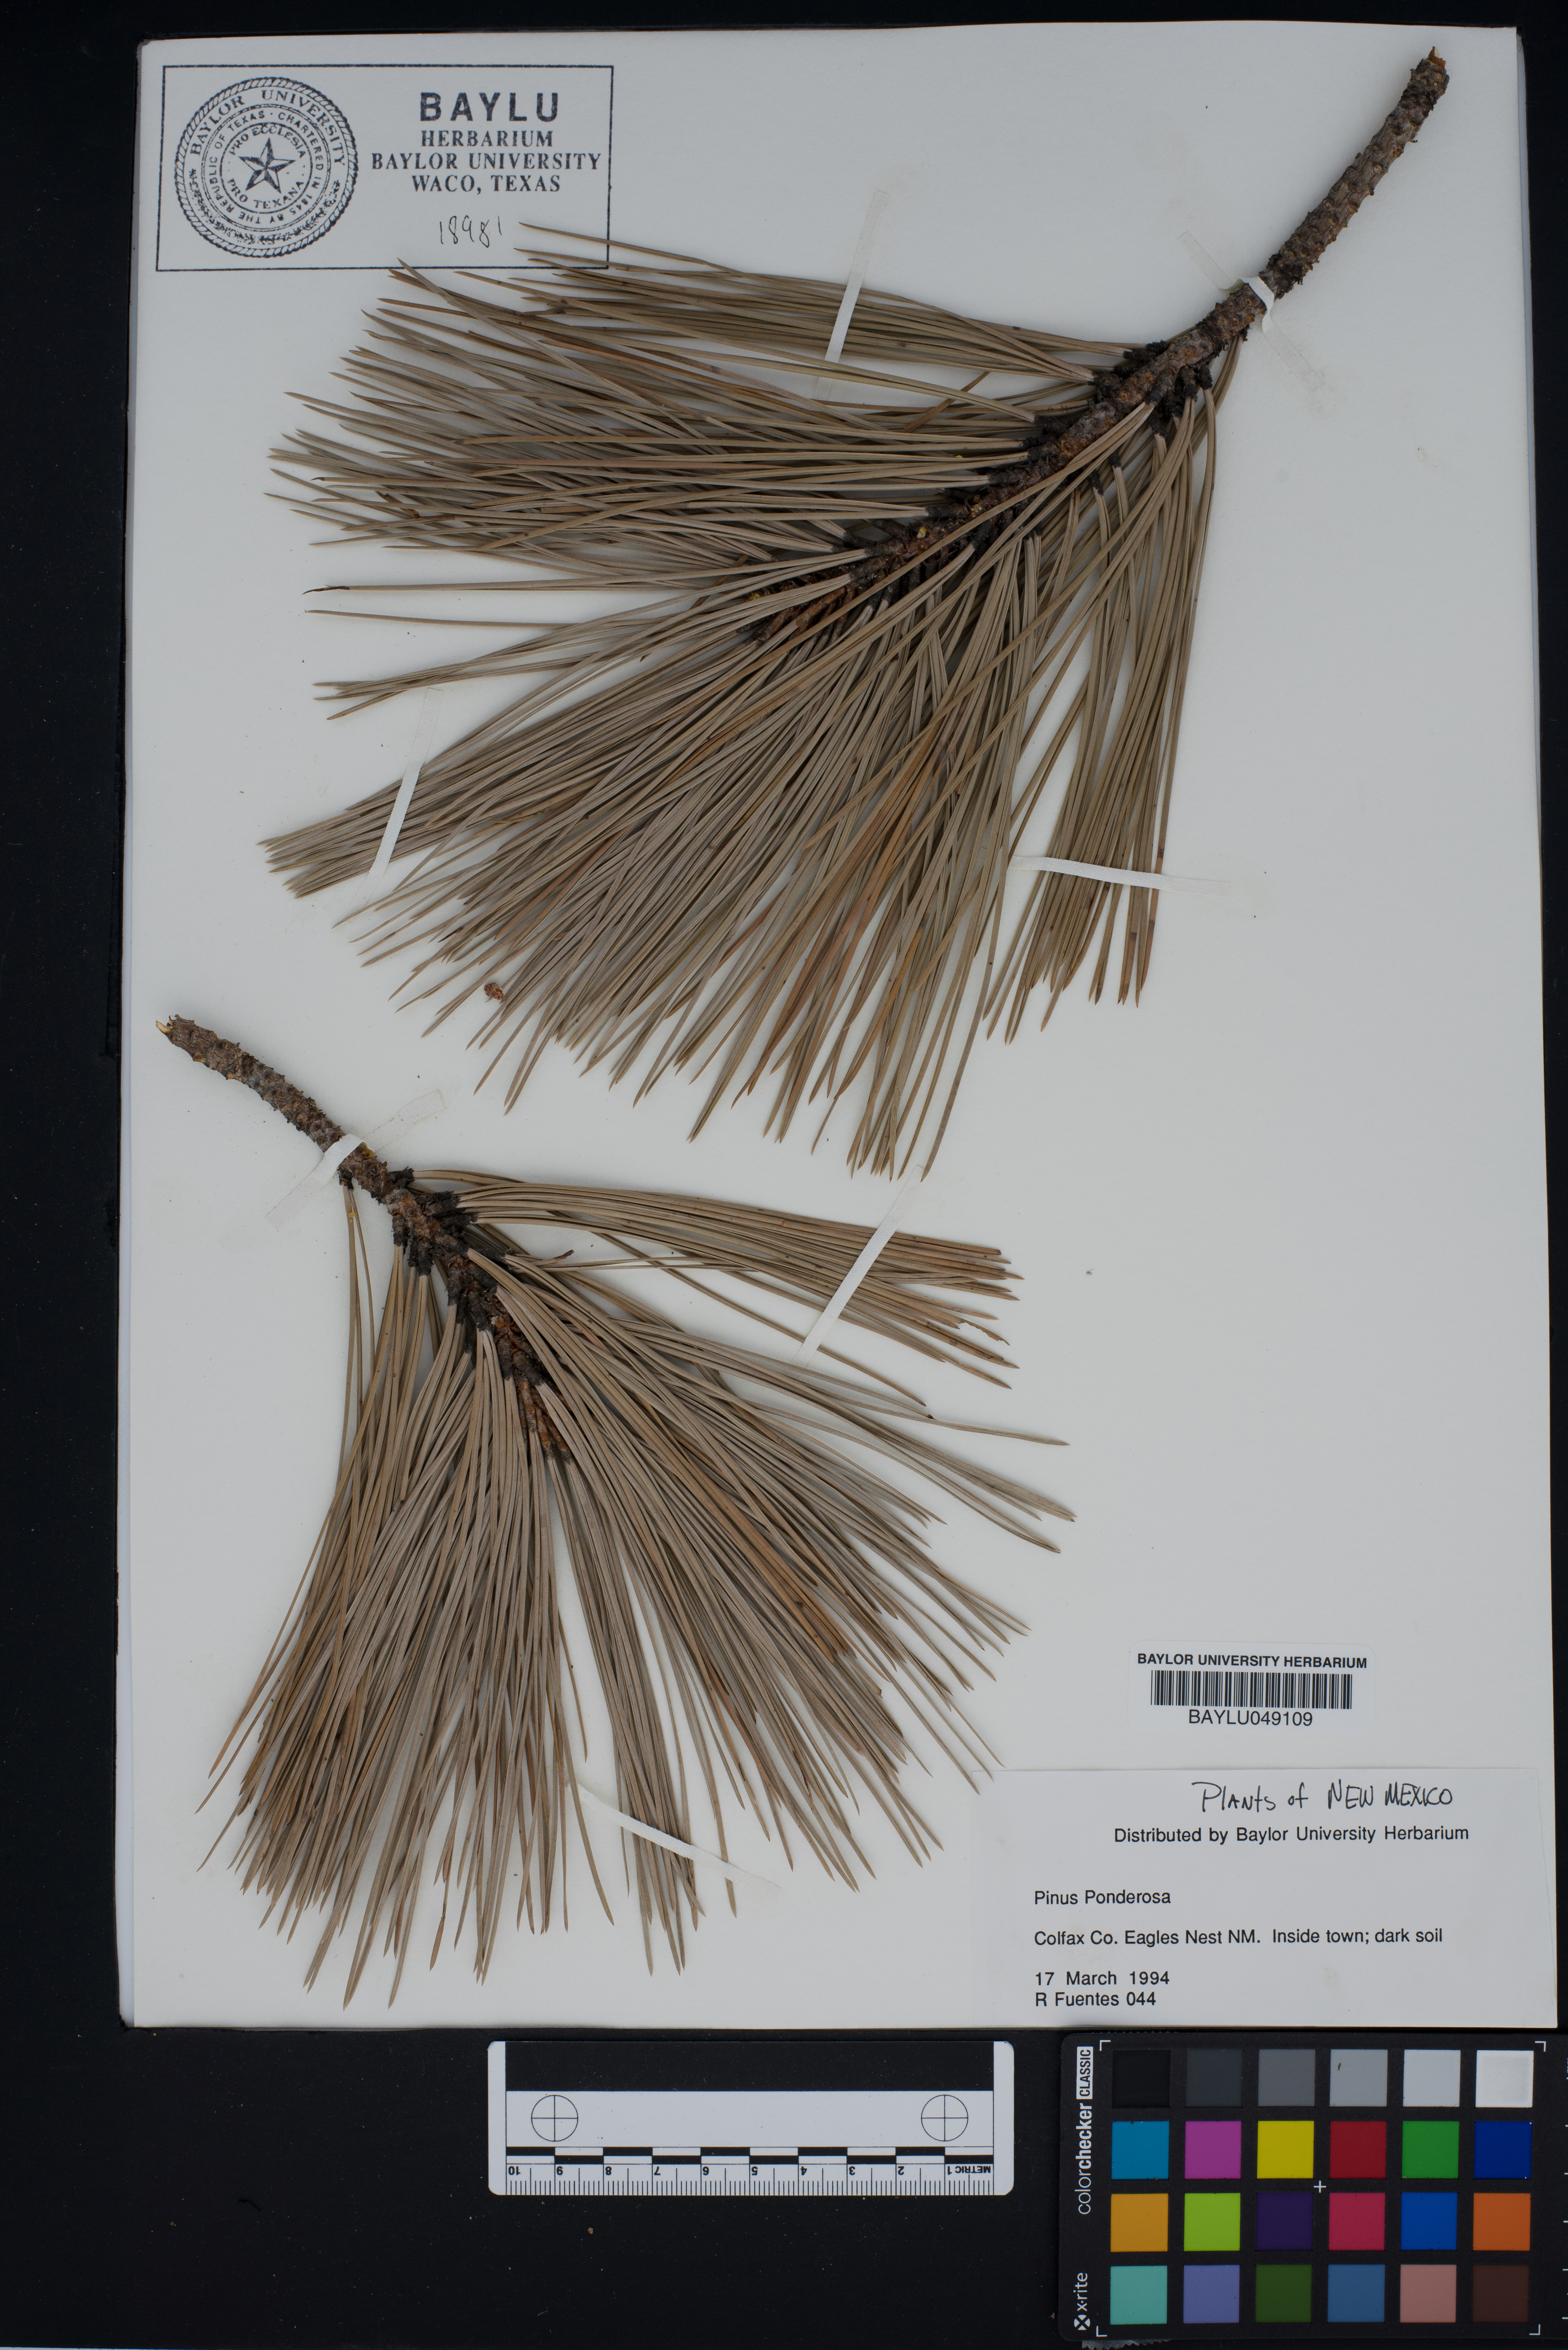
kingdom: Plantae
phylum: Tracheophyta
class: Pinopsida
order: Pinales
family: Pinaceae
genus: Pinus
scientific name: Pinus ponderosa
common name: Western yellow-pine
